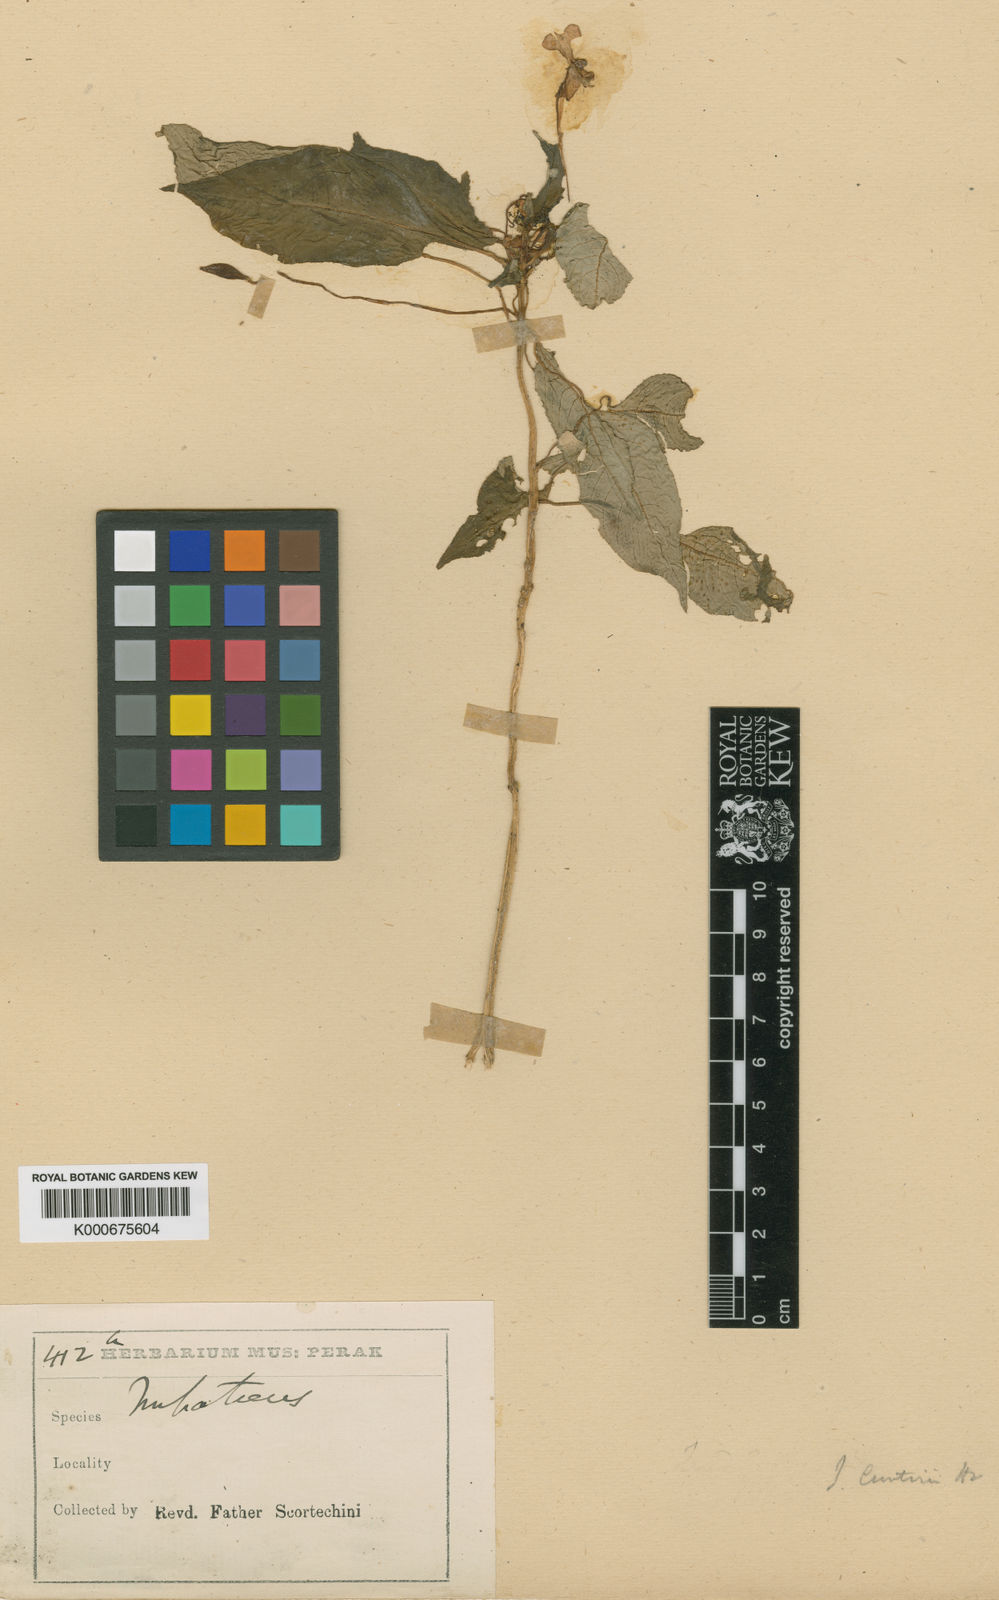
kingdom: Plantae
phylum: Tracheophyta
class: Magnoliopsida
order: Ericales
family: Balsaminaceae
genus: Impatiens
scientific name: Impatiens curtisii
